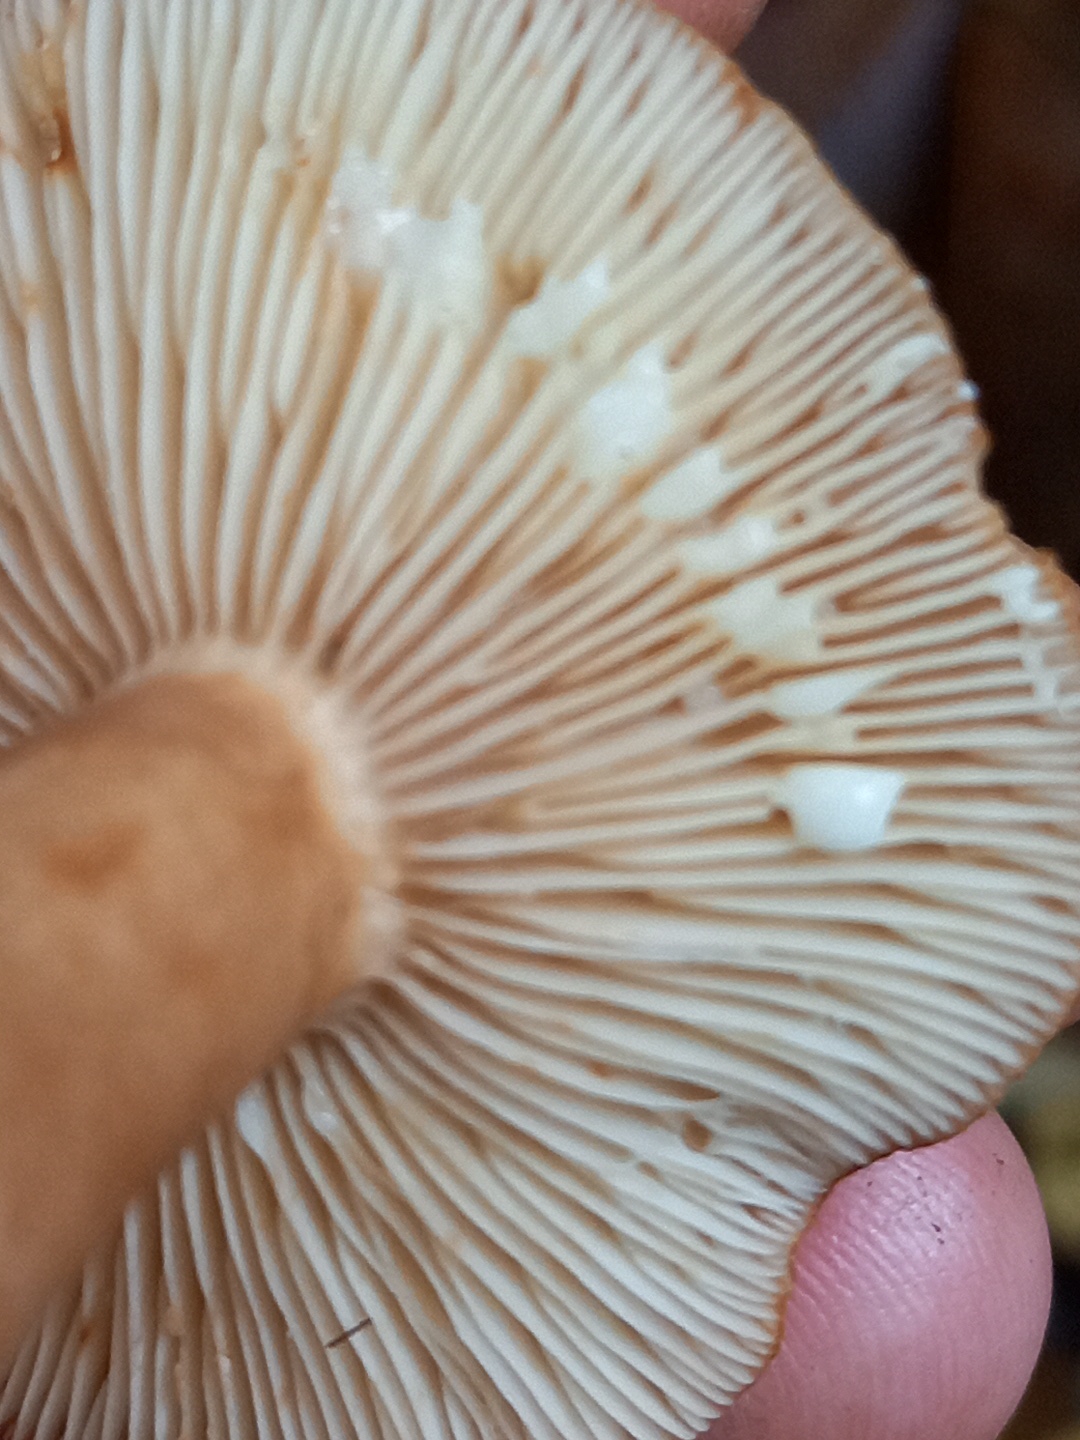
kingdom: Fungi
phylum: Basidiomycota
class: Agaricomycetes
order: Russulales
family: Russulaceae
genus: Lactarius
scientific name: Lactarius quietus
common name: ege-mælkehat
